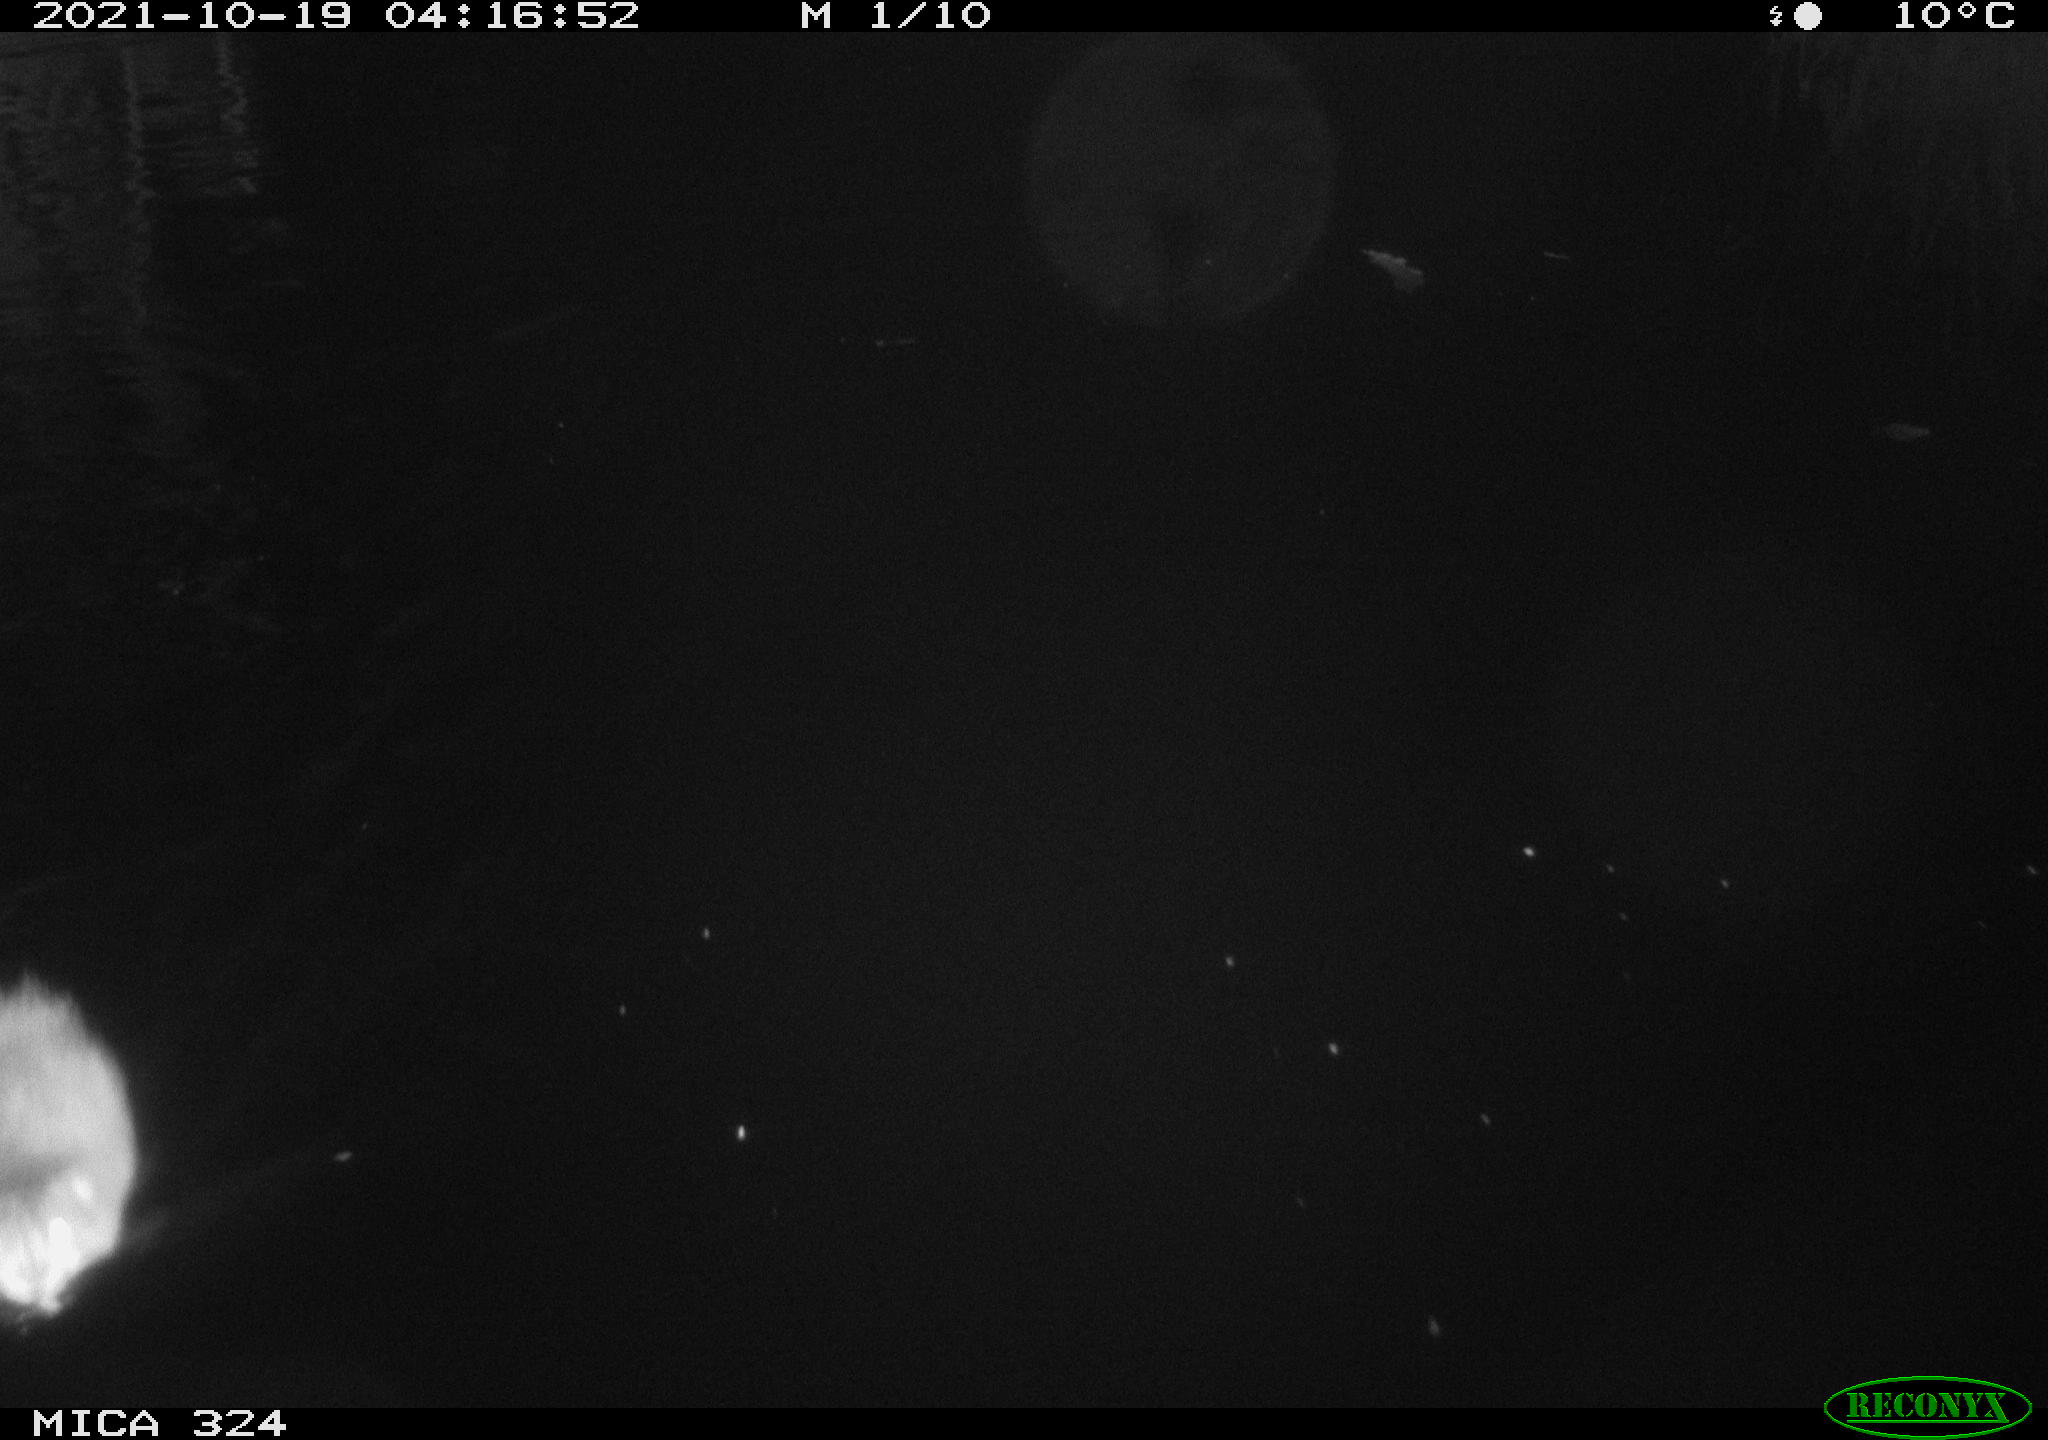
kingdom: Animalia
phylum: Chordata
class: Mammalia
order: Rodentia
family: Cricetidae
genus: Ondatra
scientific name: Ondatra zibethicus
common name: Muskrat
